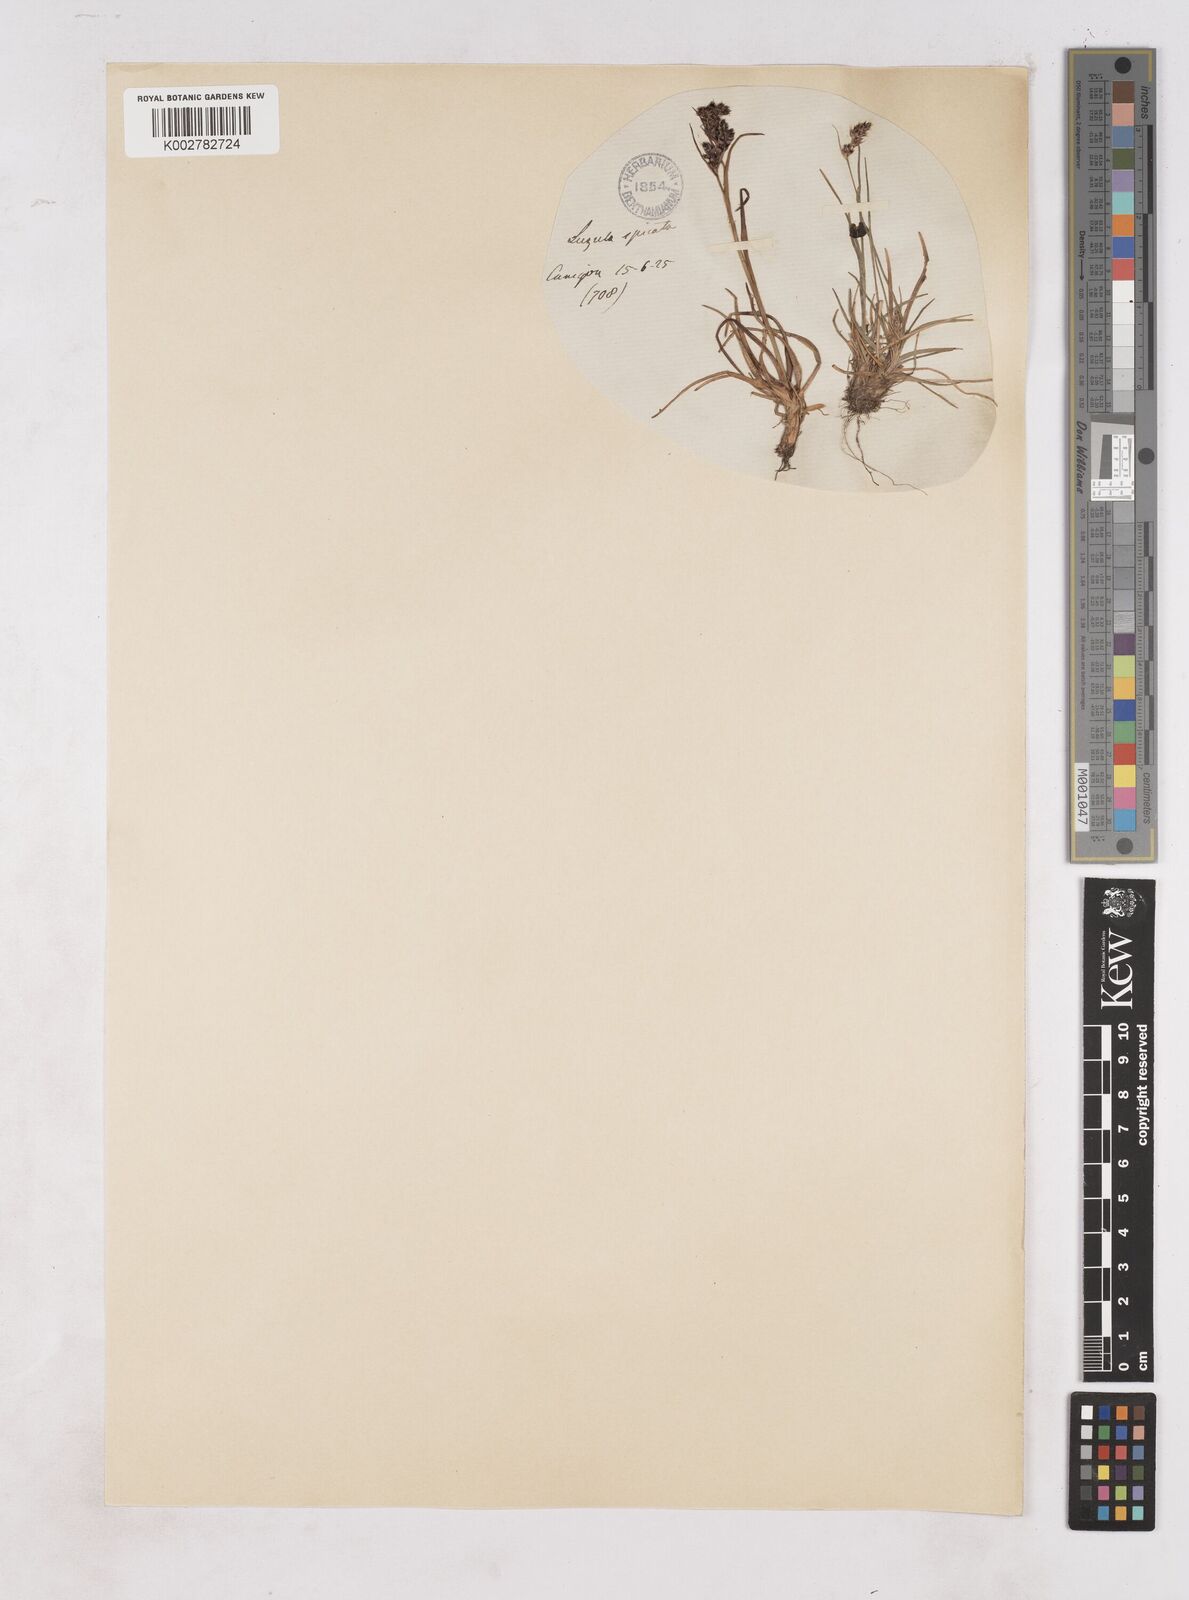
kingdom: Plantae
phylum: Tracheophyta
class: Liliopsida
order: Poales
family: Juncaceae
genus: Luzula
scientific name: Luzula spicata
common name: Spiked wood-rush
